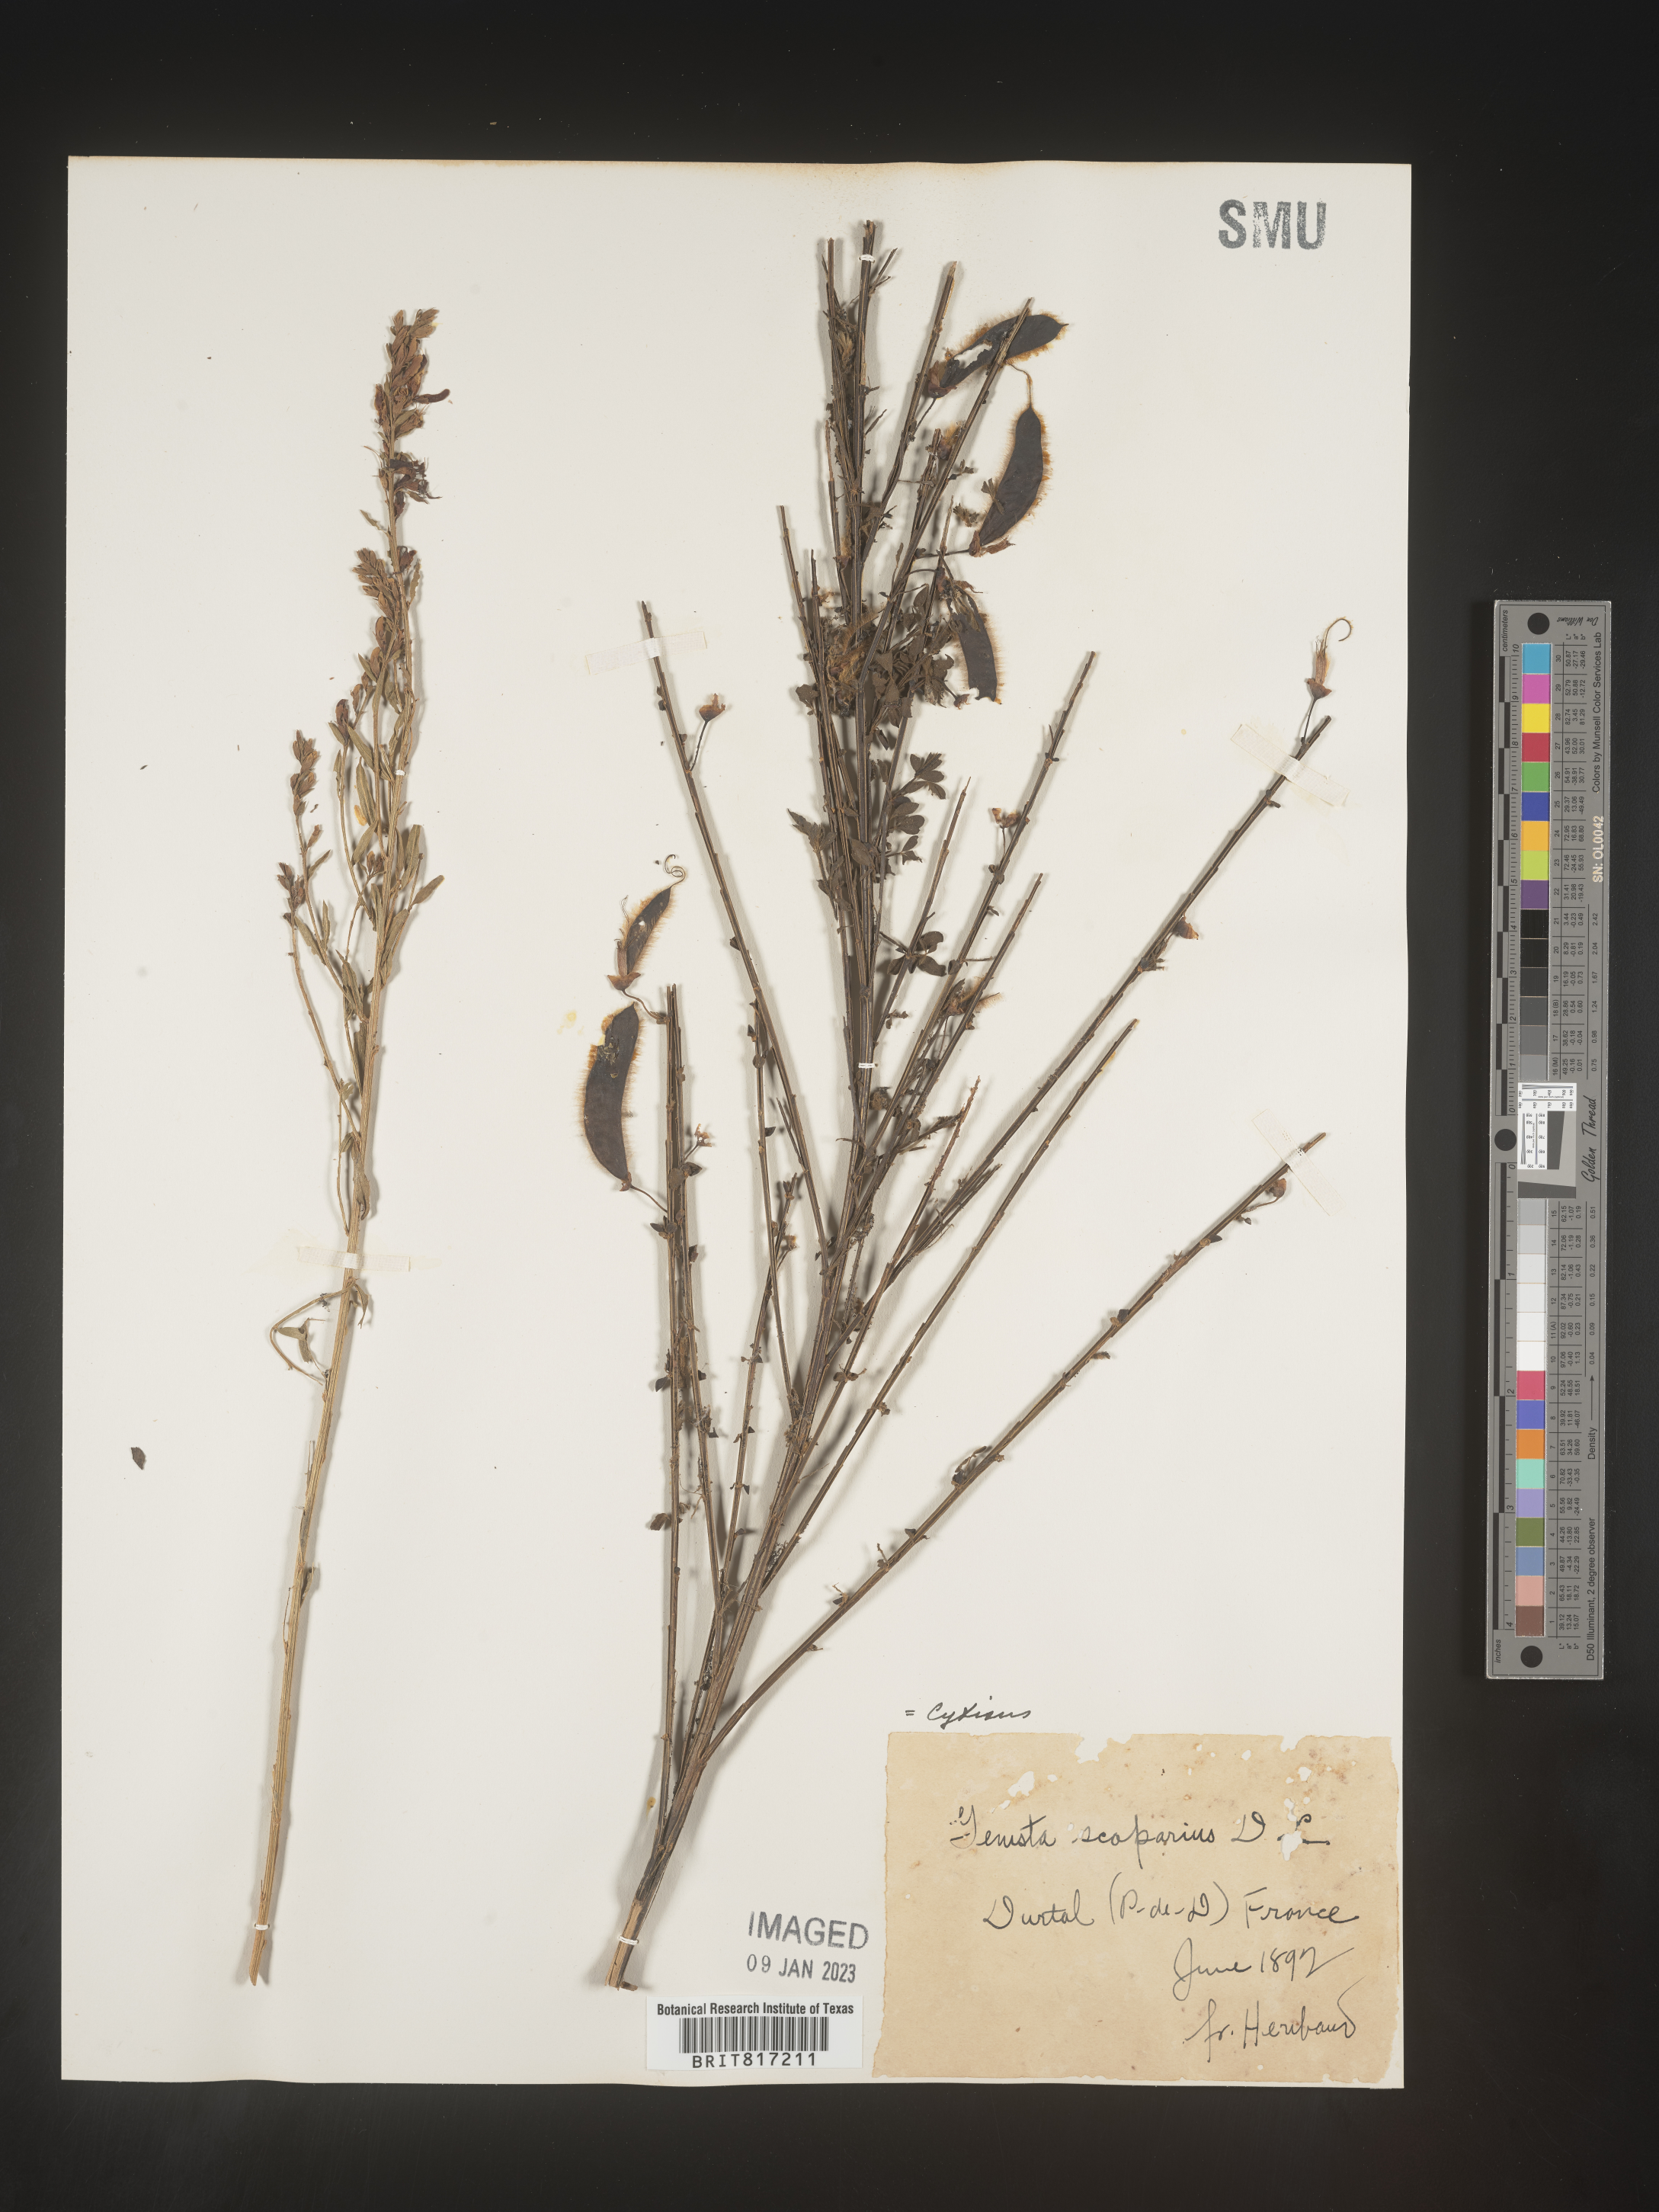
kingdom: Plantae
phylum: Tracheophyta
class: Magnoliopsida
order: Fabales
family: Fabaceae
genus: Cytisus
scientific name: Cytisus scoparius
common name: Scotch broom
